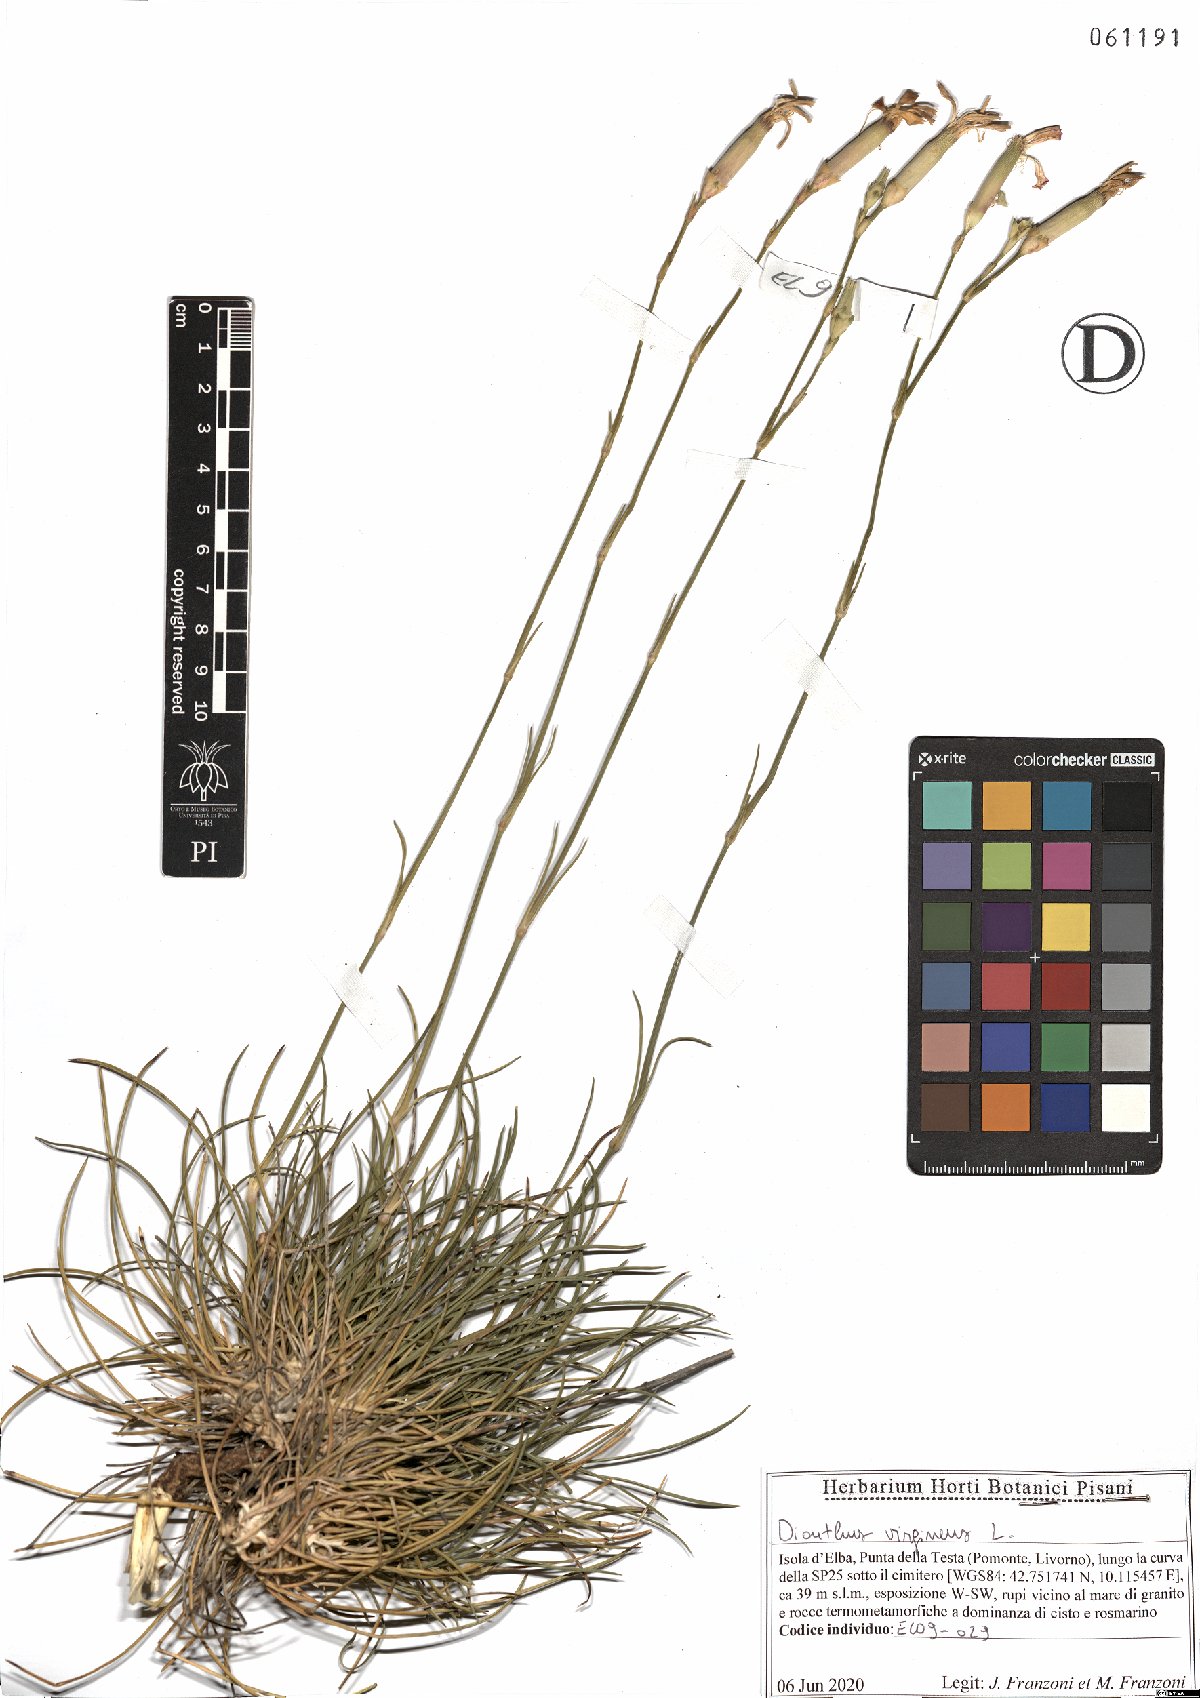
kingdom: Plantae
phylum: Tracheophyta
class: Magnoliopsida
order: Caryophyllales
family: Caryophyllaceae
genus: Dianthus
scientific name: Dianthus virgineus
